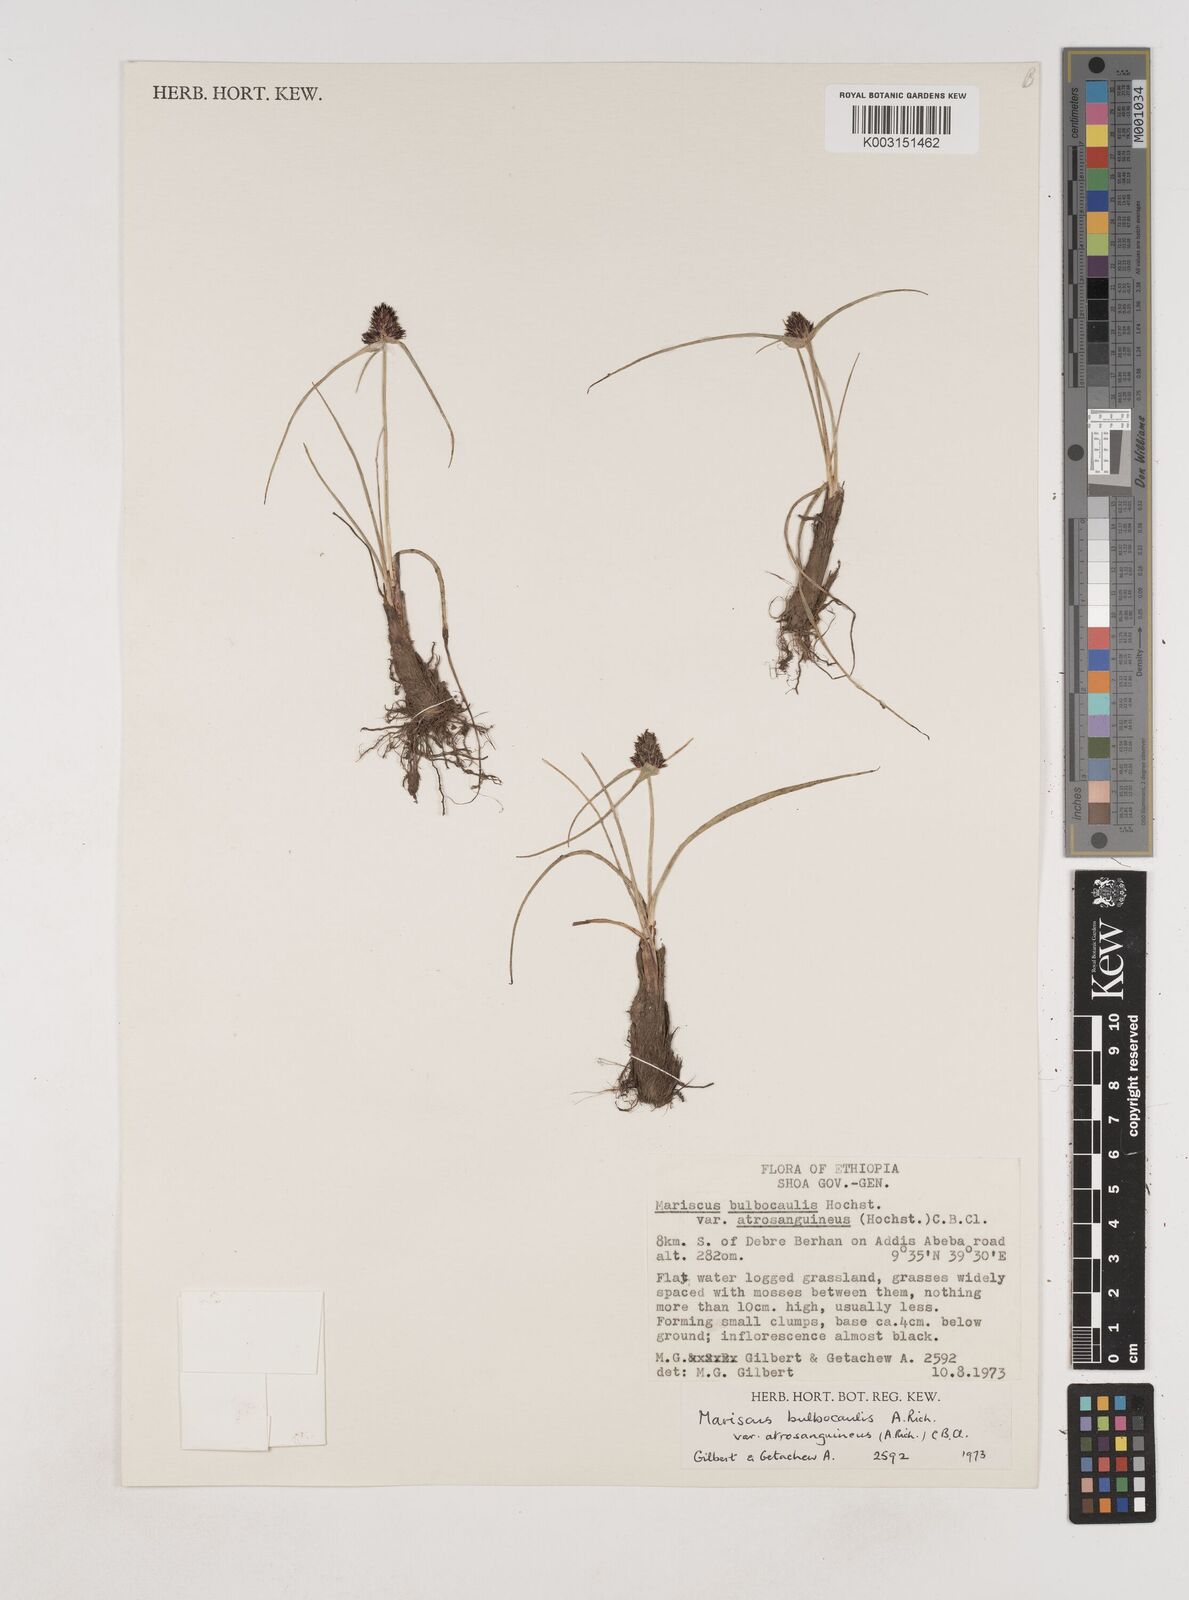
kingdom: Plantae
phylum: Tracheophyta
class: Liliopsida
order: Poales
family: Cyperaceae
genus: Cyperus
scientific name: Cyperus plateilema
